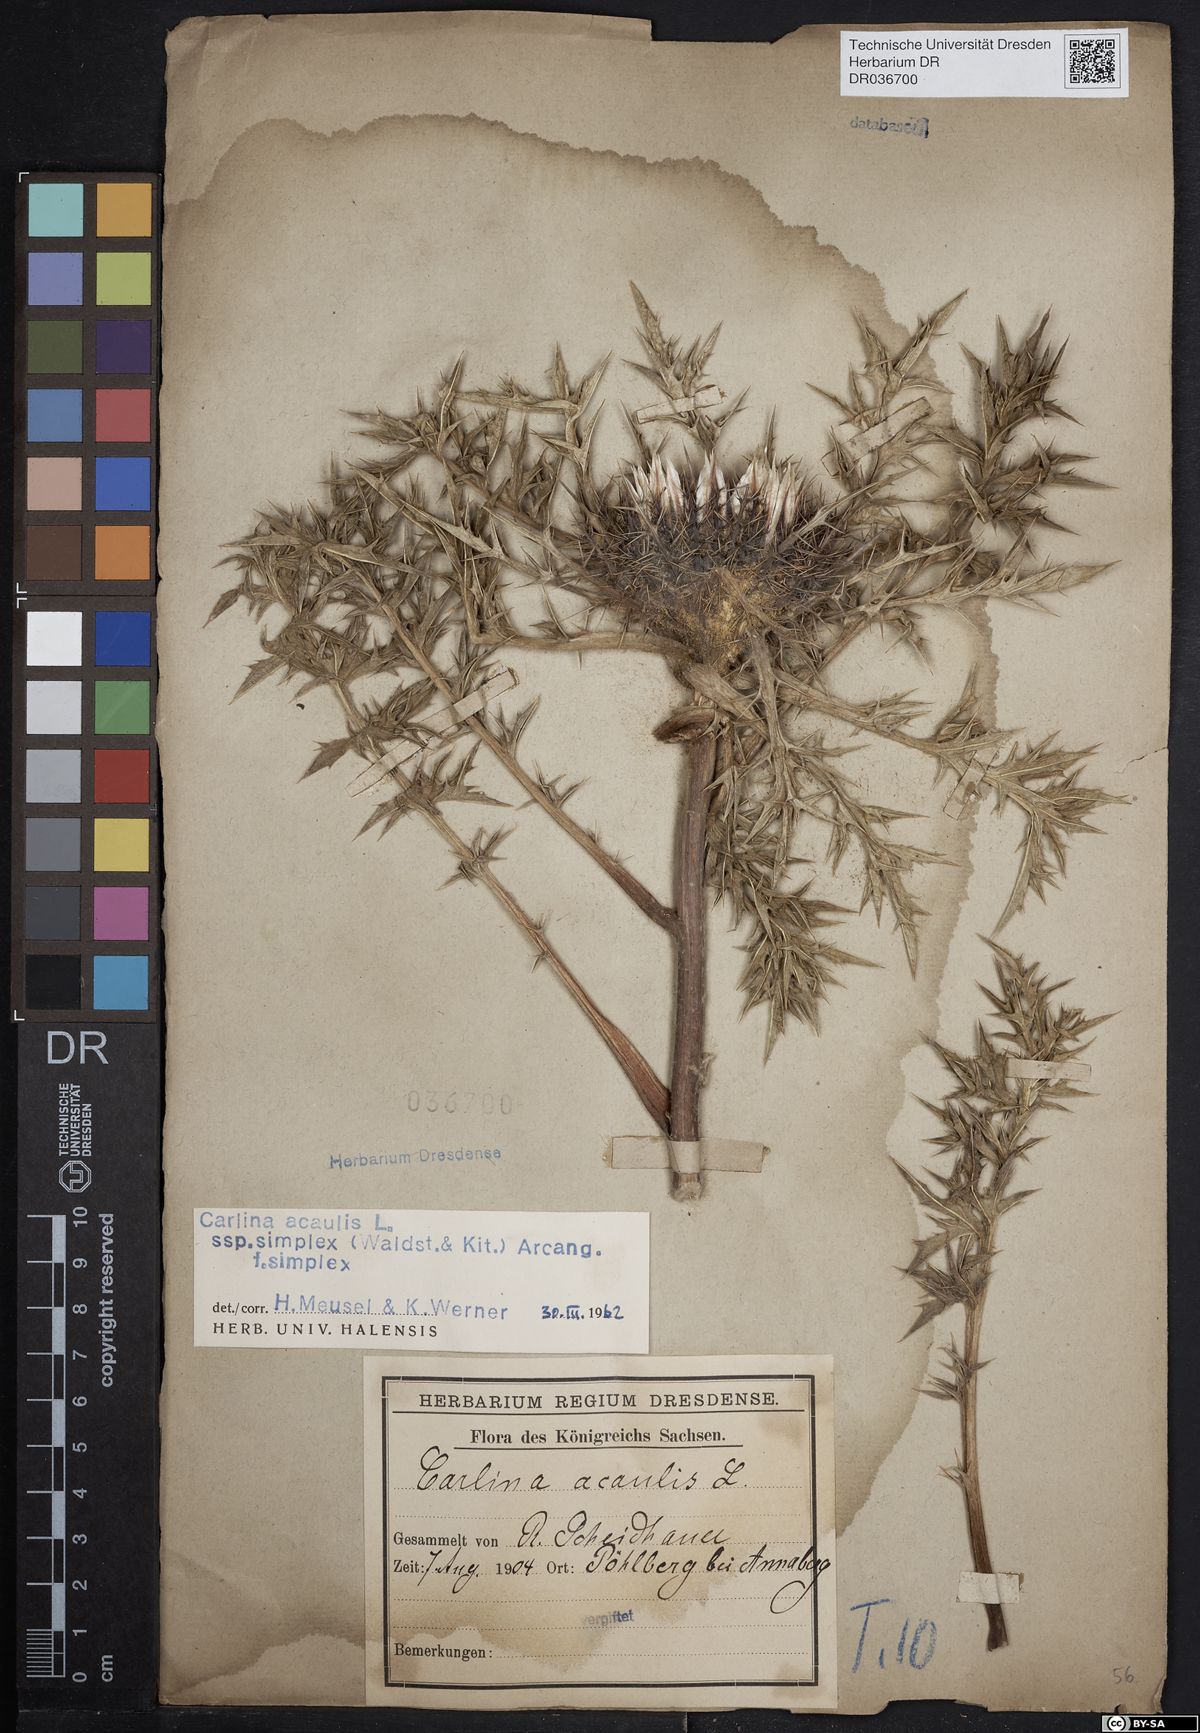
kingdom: Plantae
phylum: Tracheophyta
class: Magnoliopsida
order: Asterales
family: Asteraceae
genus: Carlina
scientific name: Carlina acaulis
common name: Stemless carline thistle
